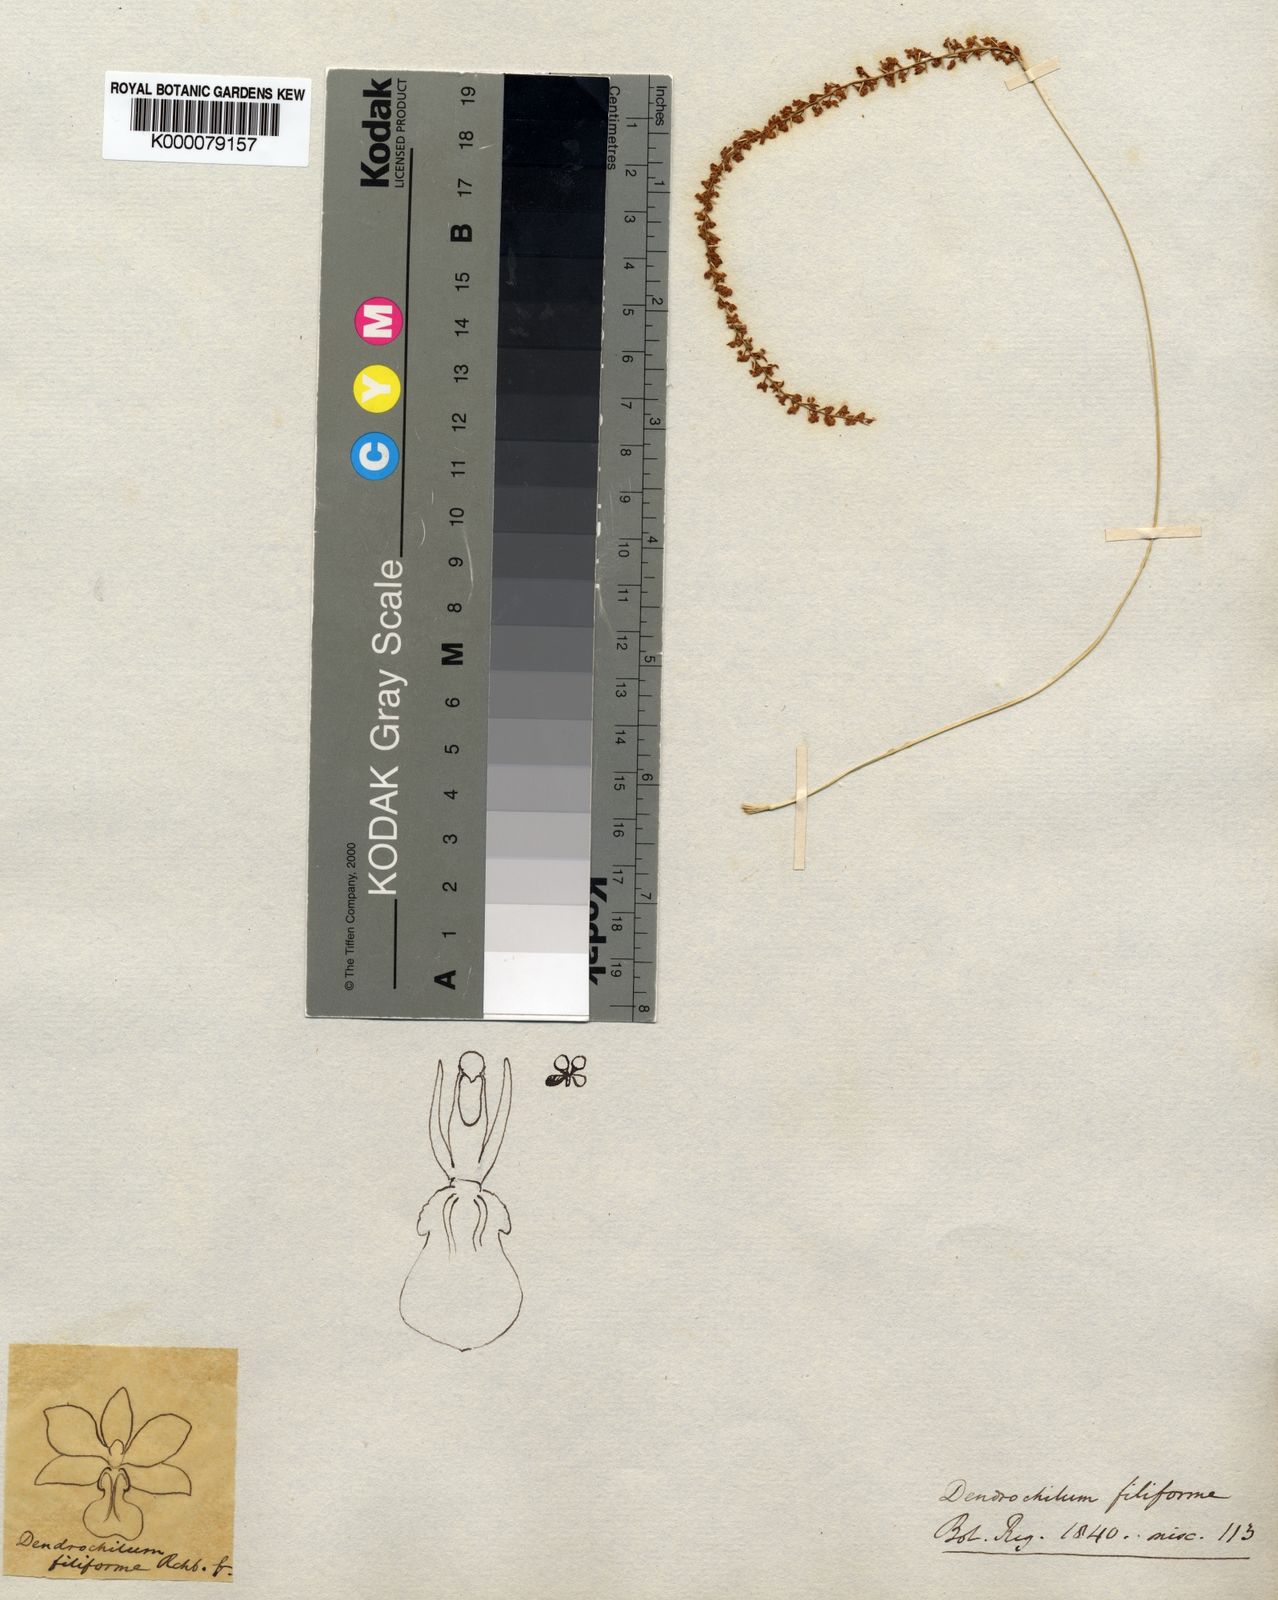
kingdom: Plantae
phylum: Tracheophyta
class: Liliopsida
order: Asparagales
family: Orchidaceae
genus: Coelogyne
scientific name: Coelogyne filiformis
